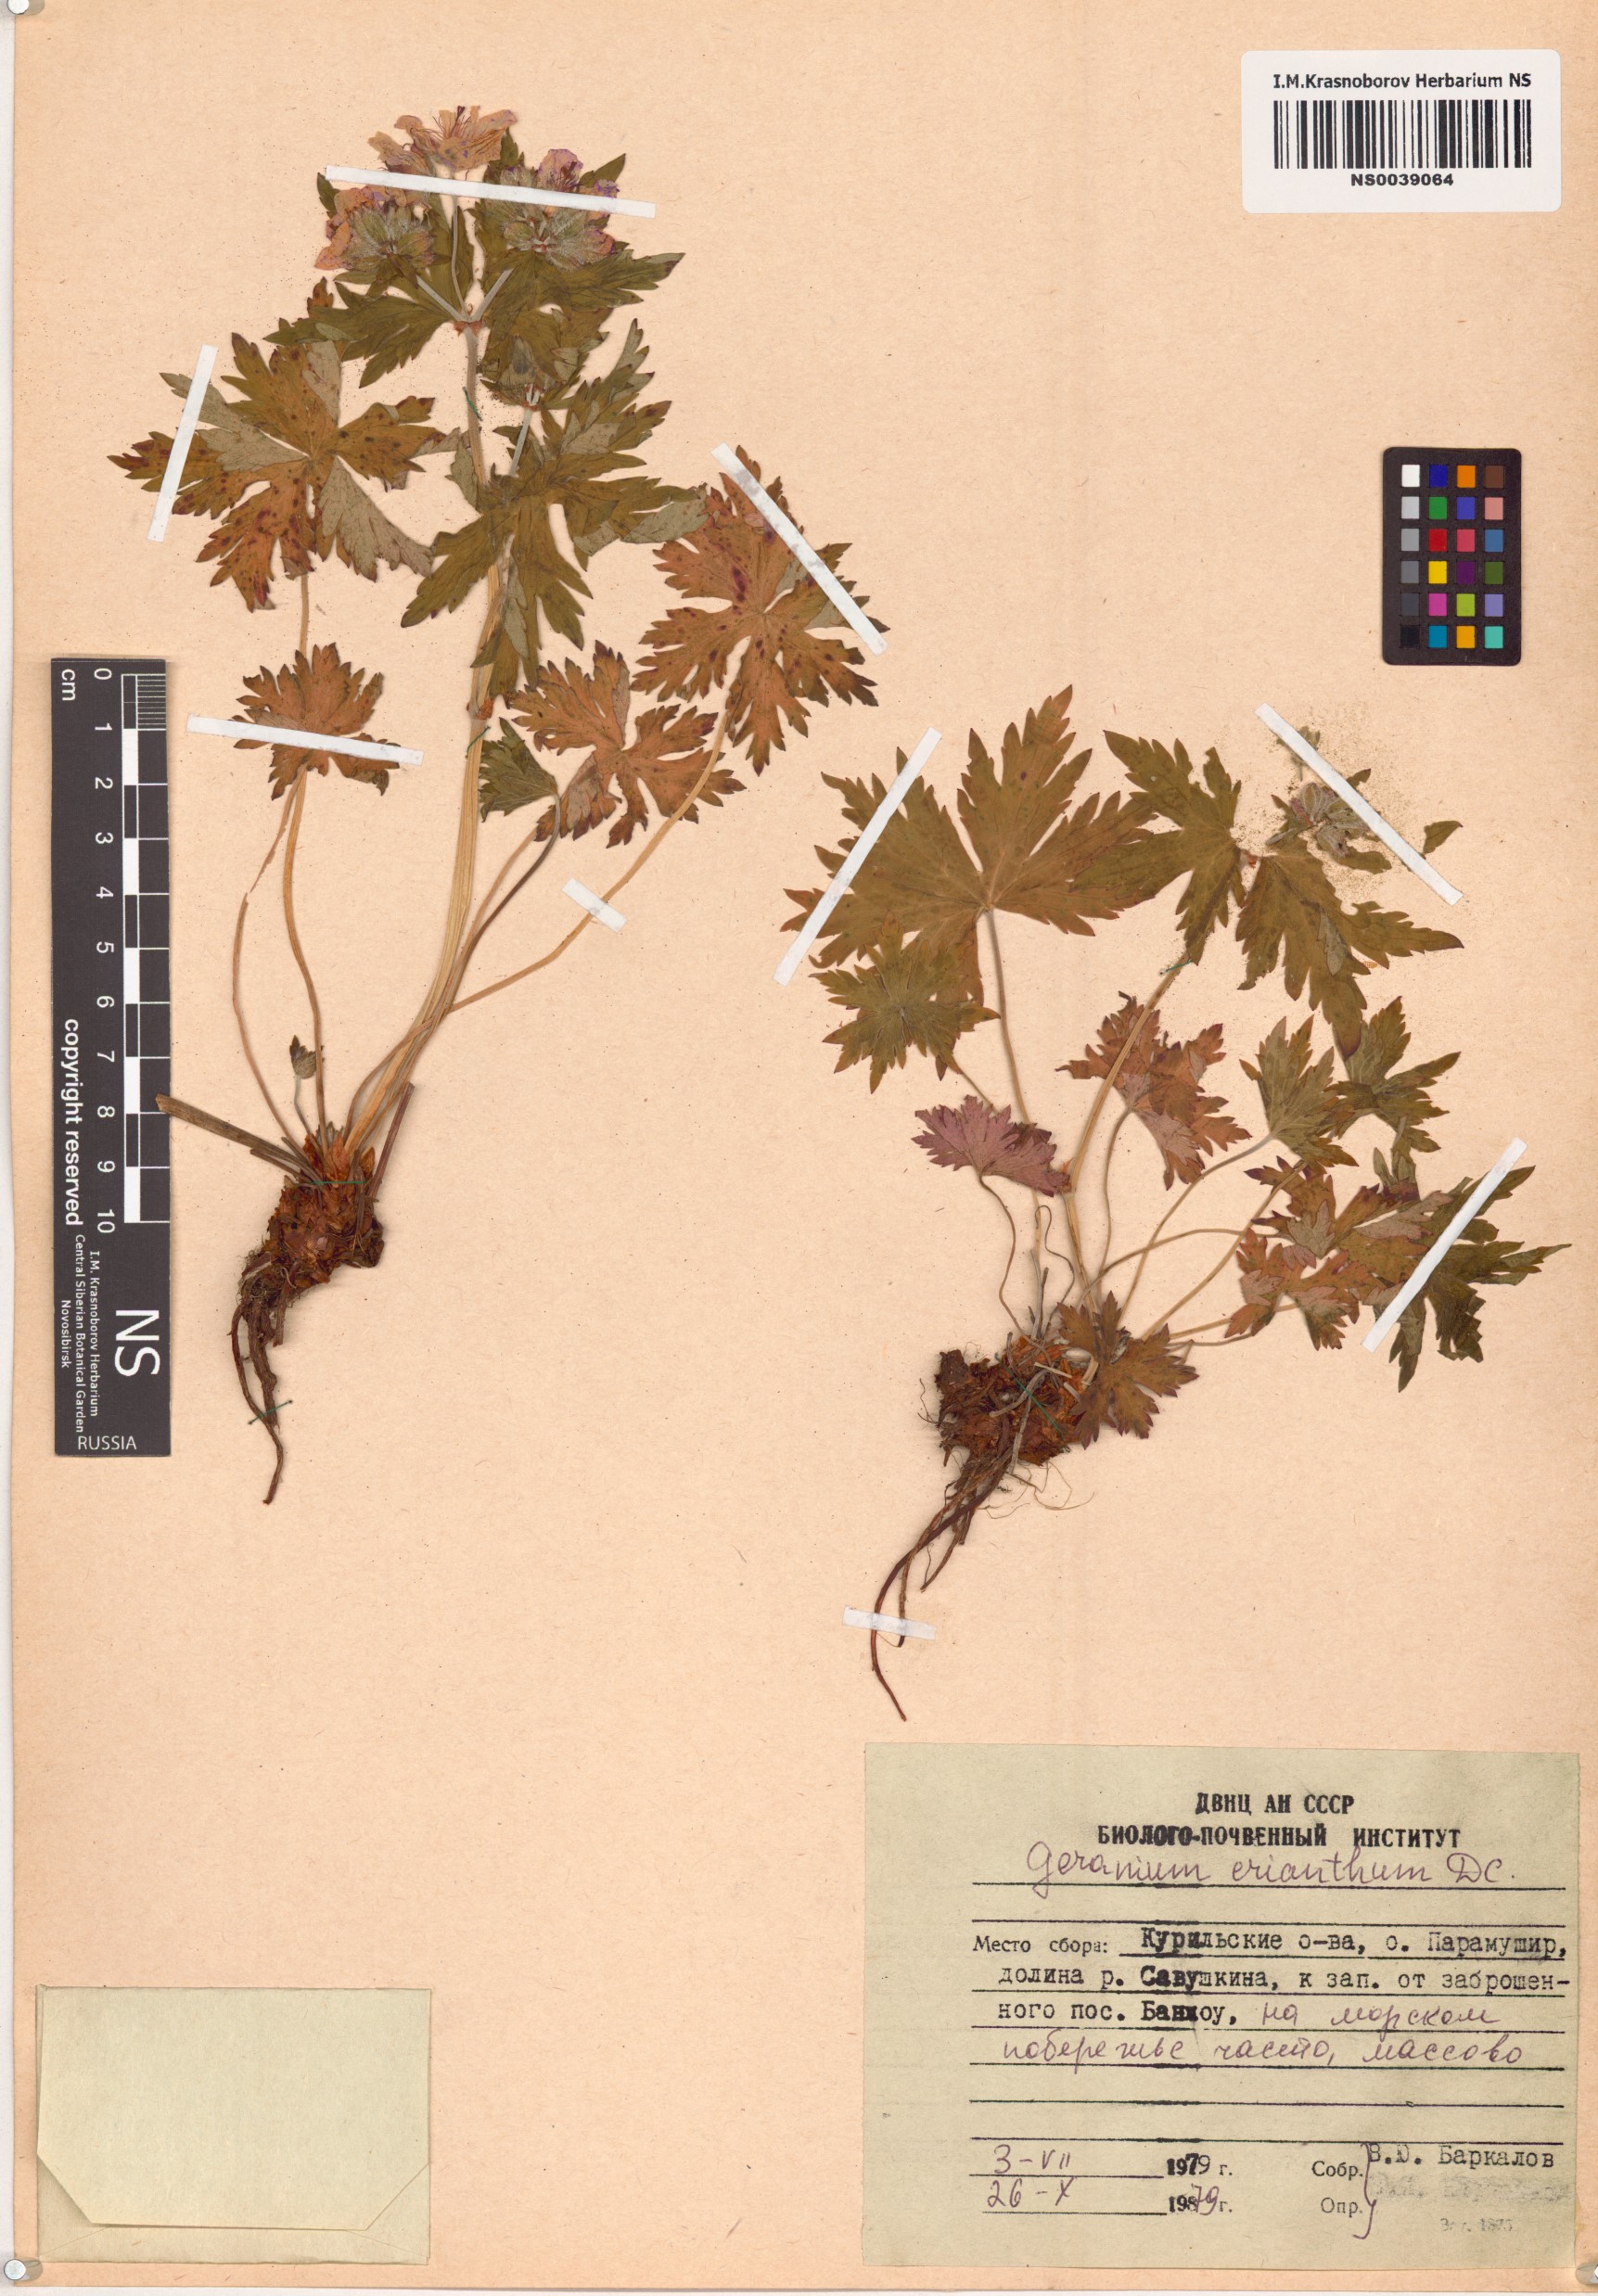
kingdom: Plantae
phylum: Tracheophyta
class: Magnoliopsida
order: Geraniales
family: Geraniaceae
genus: Geranium
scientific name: Geranium erianthum
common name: Northern crane's-bill
